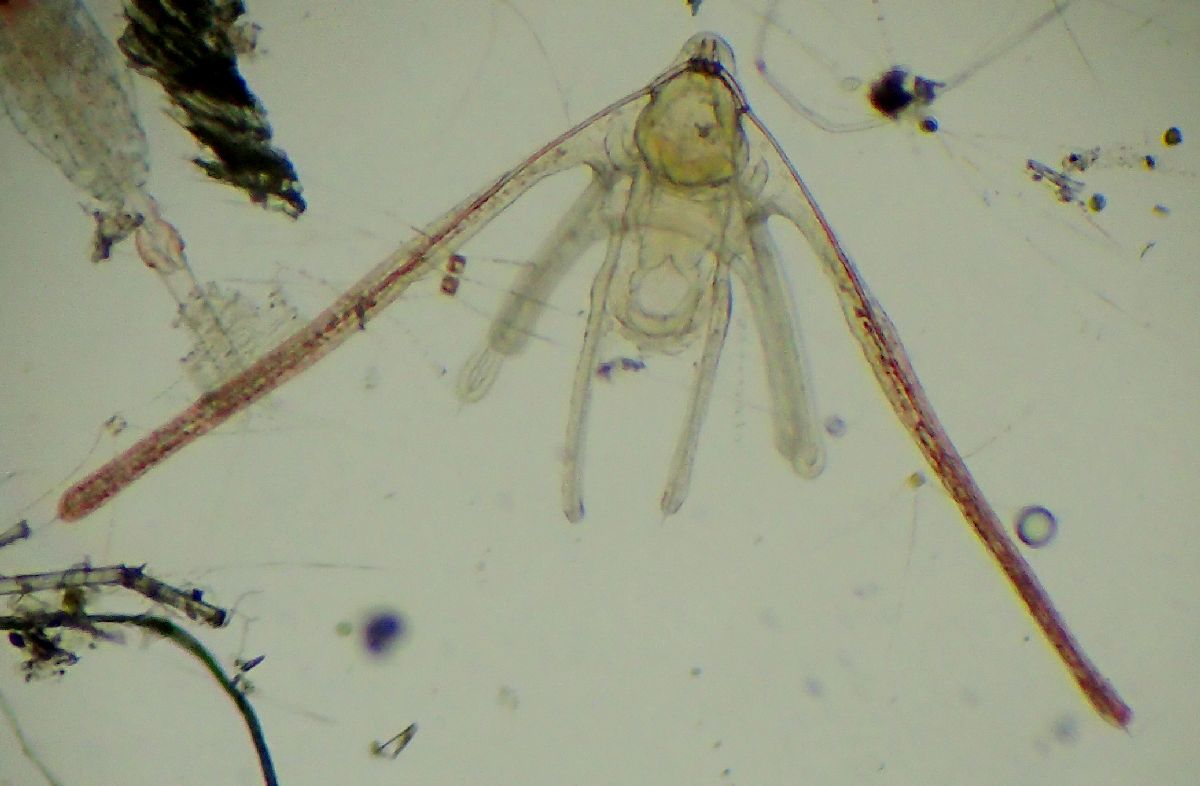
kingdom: Animalia
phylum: Echinodermata
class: Ophiuroidea
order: Amphilepidida
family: Ophiopholidae
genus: Ophiopholis
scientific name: Ophiopholis aculeata
